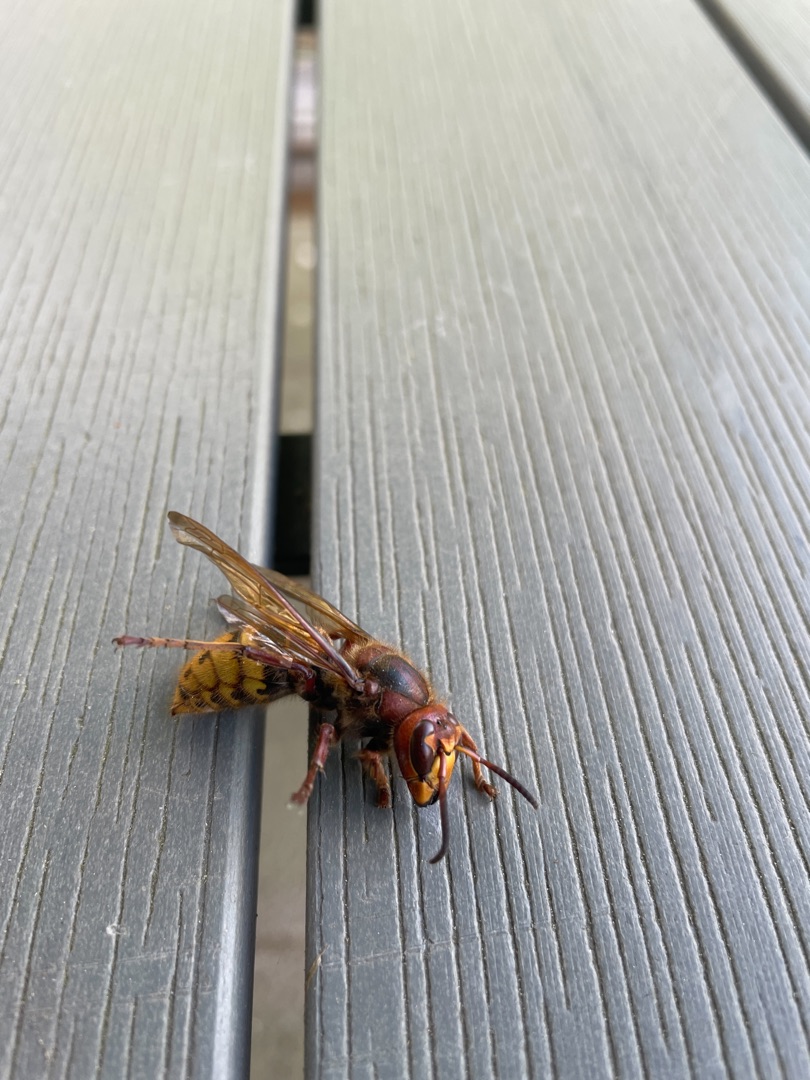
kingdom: Animalia
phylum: Arthropoda
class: Insecta
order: Hymenoptera
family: Vespidae
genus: Vespa
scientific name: Vespa crabro
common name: Stor gedehams
